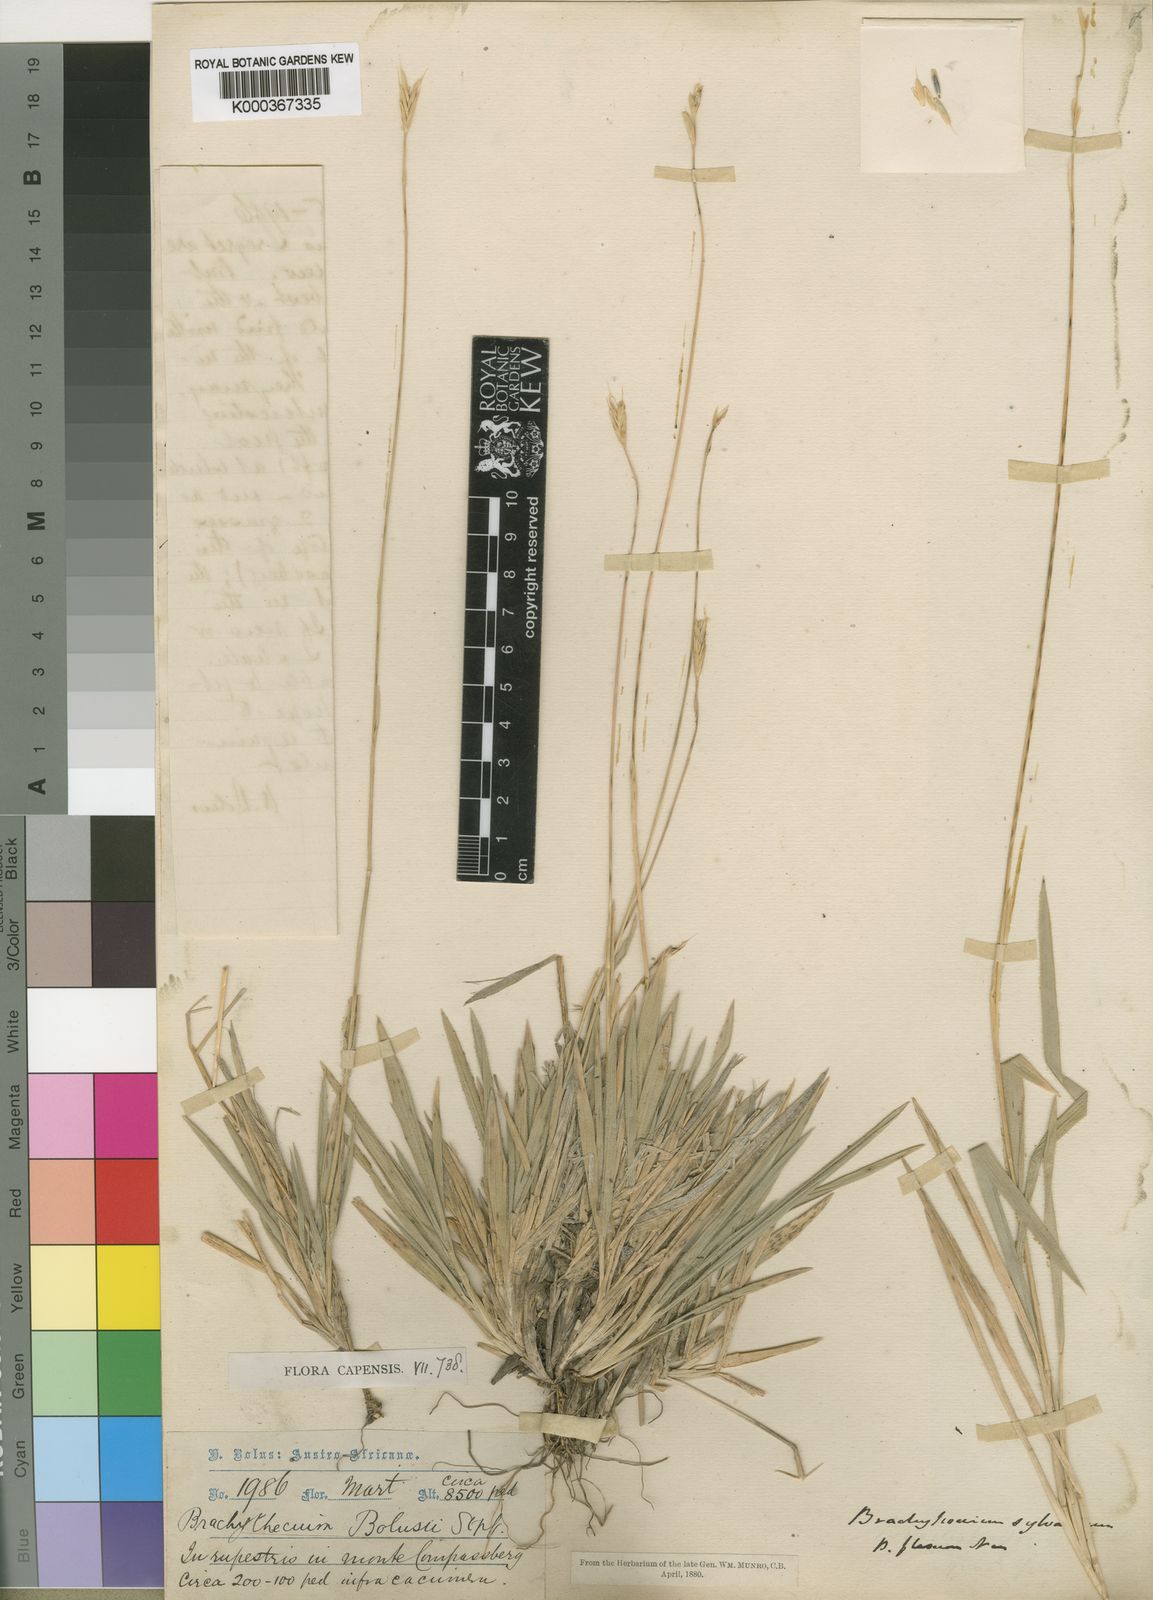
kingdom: Plantae
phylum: Tracheophyta
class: Liliopsida
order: Poales
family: Poaceae
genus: Brachypodium
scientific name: Brachypodium bolusii
